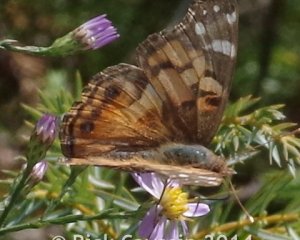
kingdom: Animalia
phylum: Arthropoda
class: Insecta
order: Lepidoptera
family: Nymphalidae
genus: Vanessa
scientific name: Vanessa virginiensis
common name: American Lady
